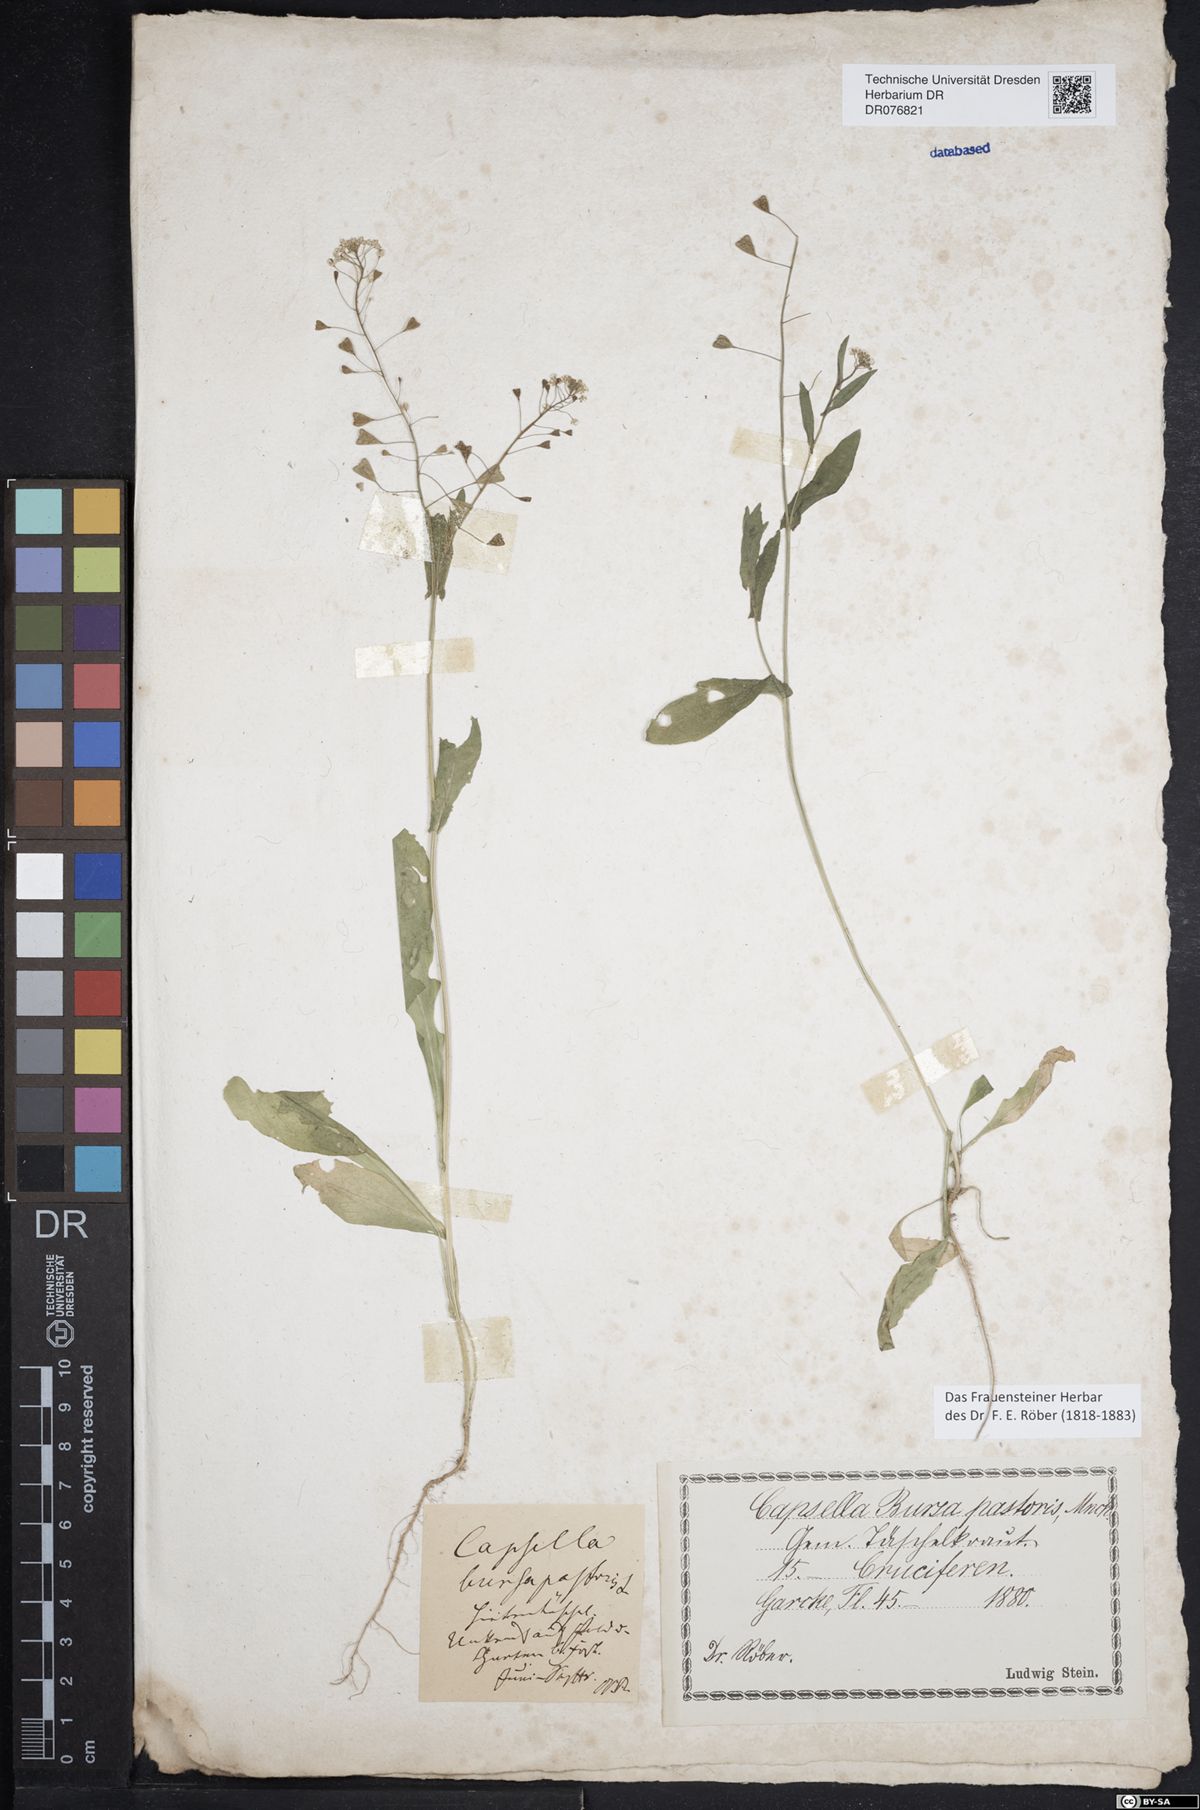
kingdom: Plantae
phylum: Tracheophyta
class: Magnoliopsida
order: Brassicales
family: Brassicaceae
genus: Capsella
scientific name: Capsella bursa-pastoris
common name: Shepherd's purse
